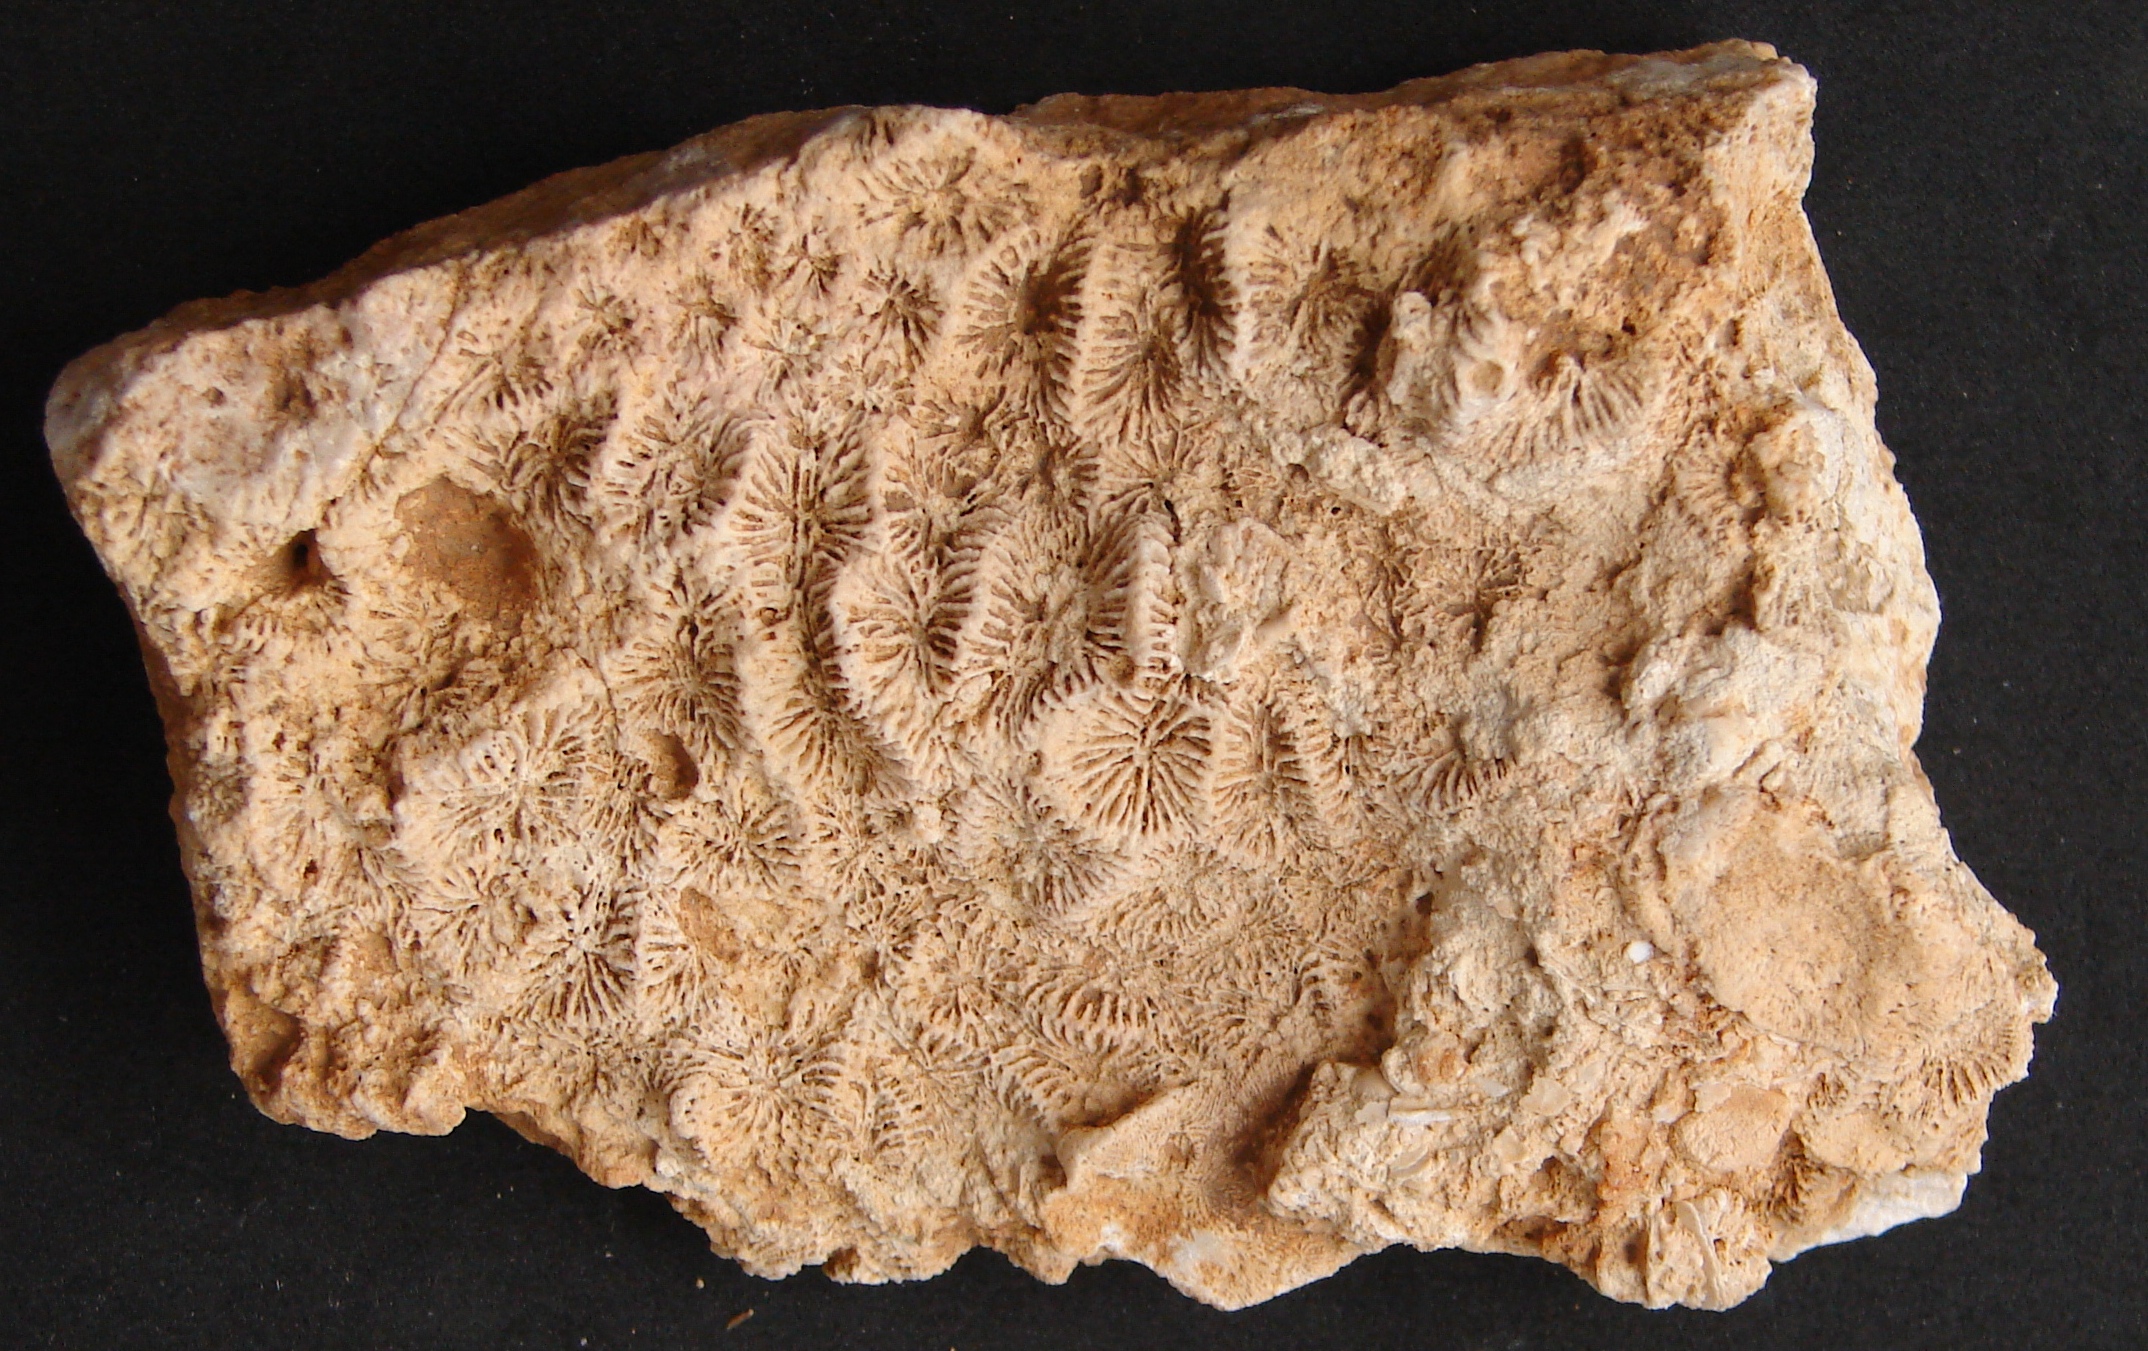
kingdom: Animalia
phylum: Cnidaria
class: Anthozoa
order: Scleractinia
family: Thecosmiliidae
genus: Isastrea
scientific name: Isastrea bernardiana
